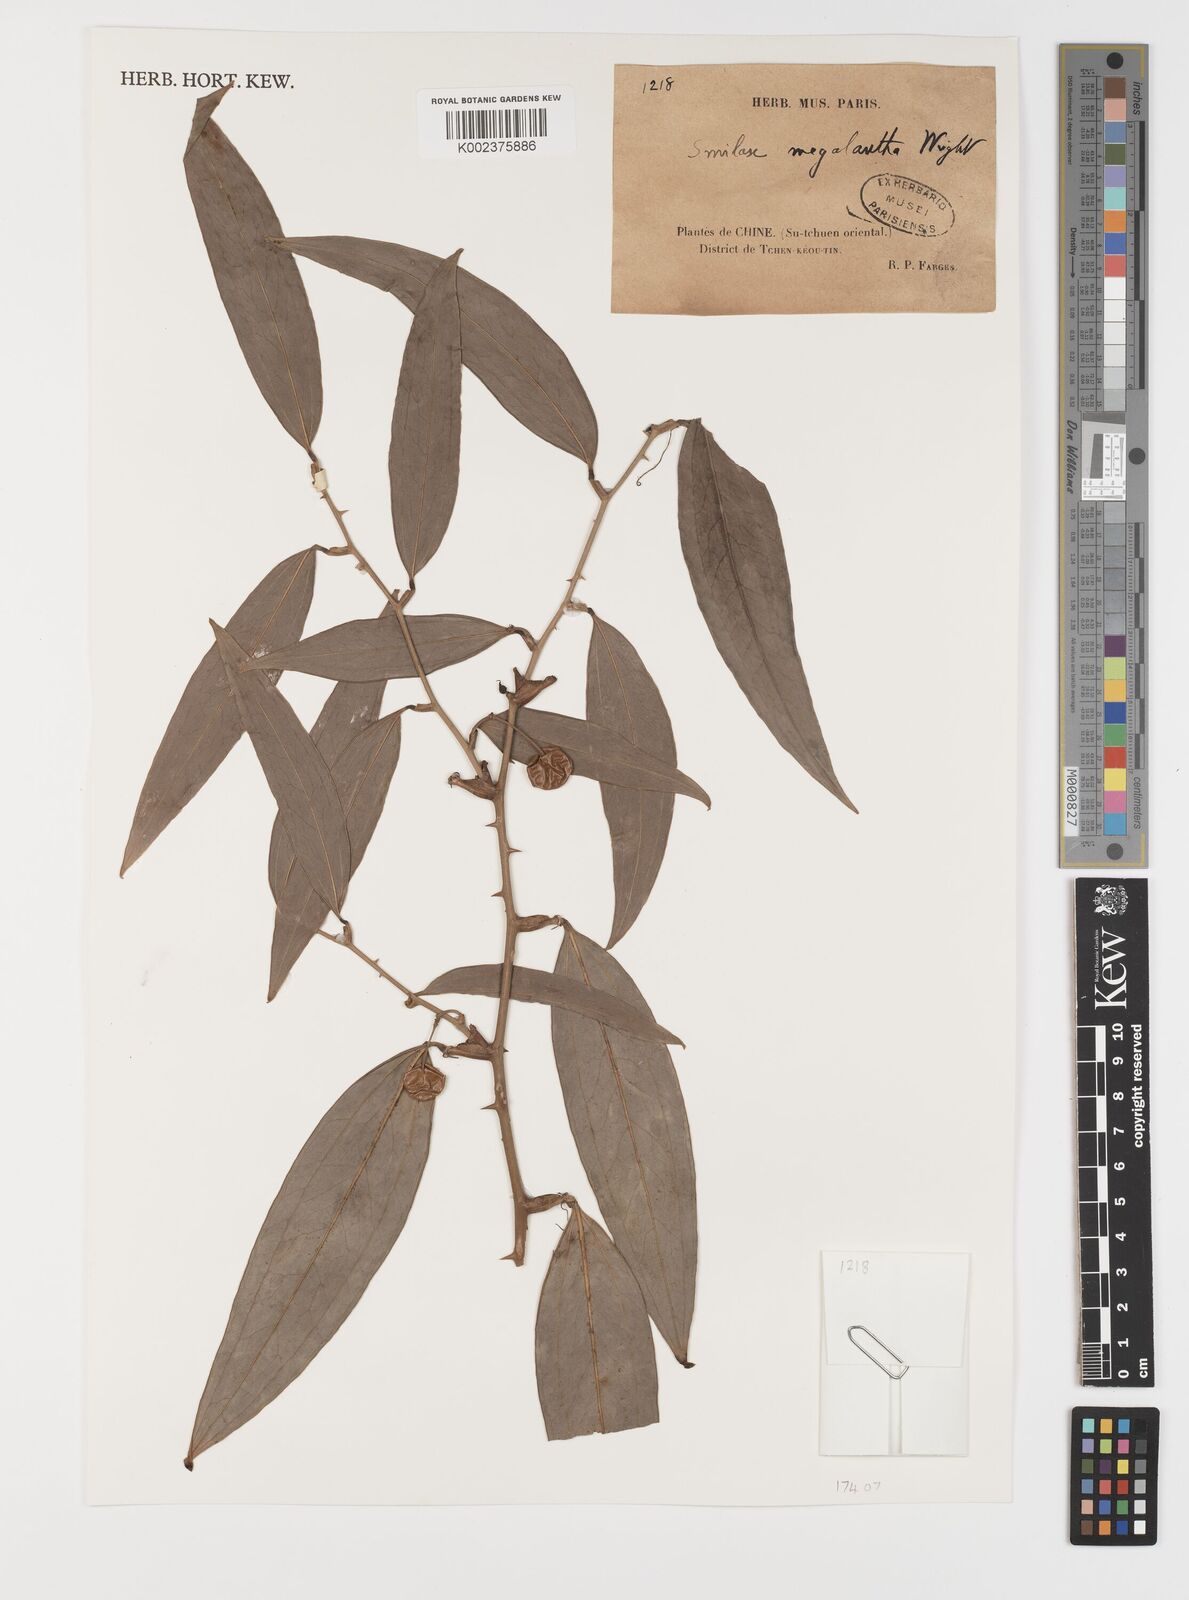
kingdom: Plantae
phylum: Tracheophyta
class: Liliopsida
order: Liliales
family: Smilacaceae
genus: Smilax
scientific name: Smilax megalantha
